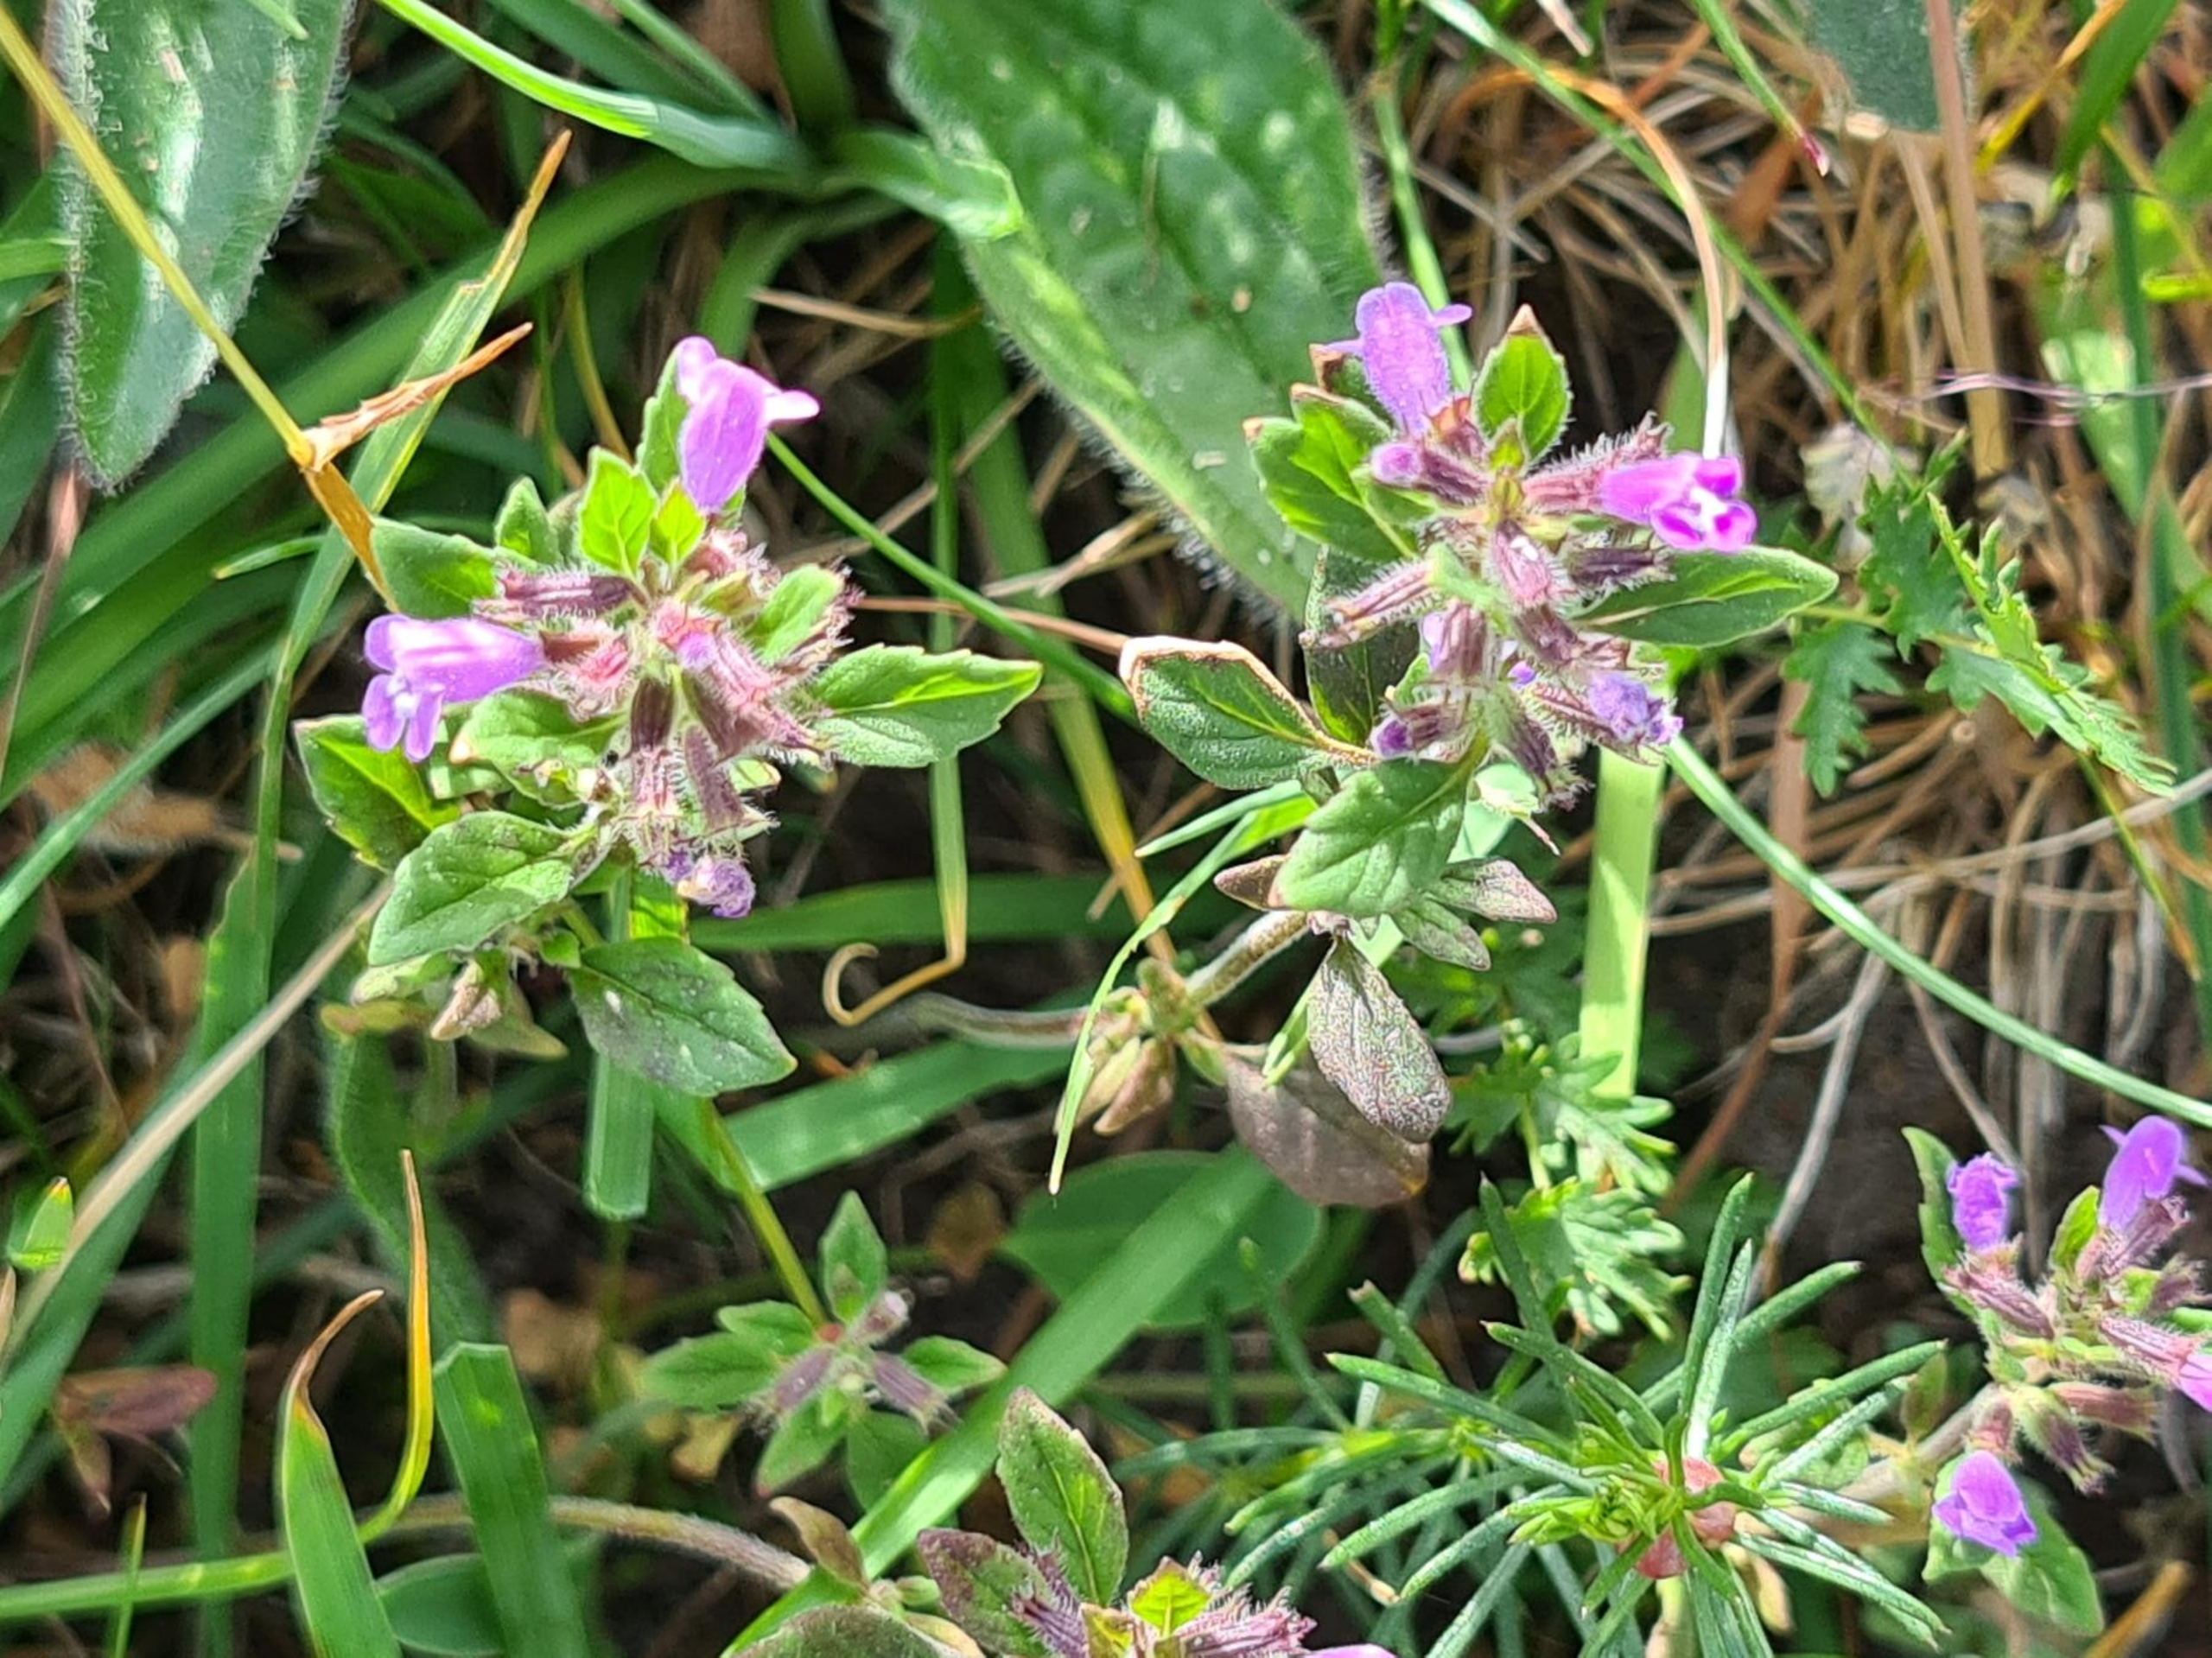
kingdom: Plantae
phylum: Tracheophyta
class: Magnoliopsida
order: Lamiales
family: Lamiaceae
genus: Clinopodium
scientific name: Clinopodium acinos
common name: Voldtimian
